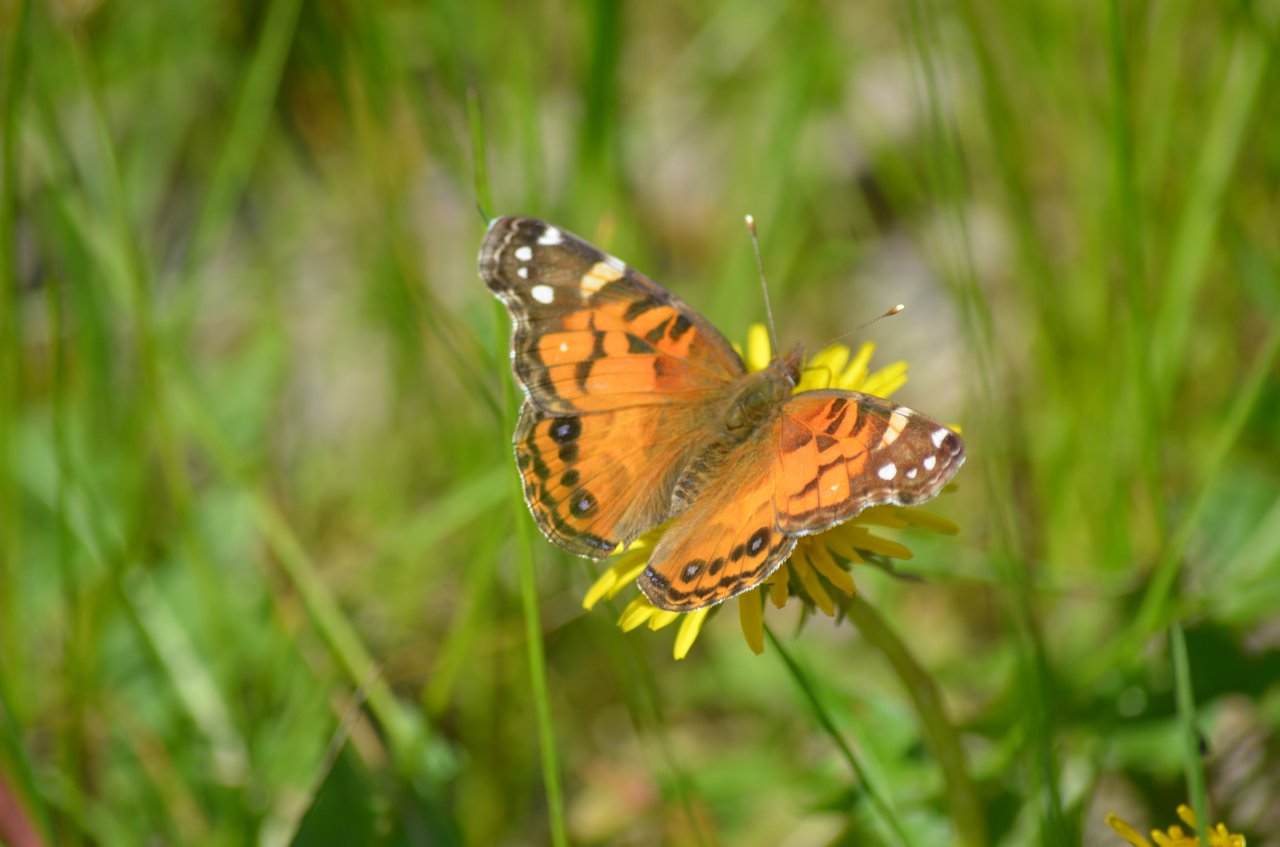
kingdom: Animalia
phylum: Arthropoda
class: Insecta
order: Lepidoptera
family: Nymphalidae
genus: Vanessa
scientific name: Vanessa virginiensis
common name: American Lady
